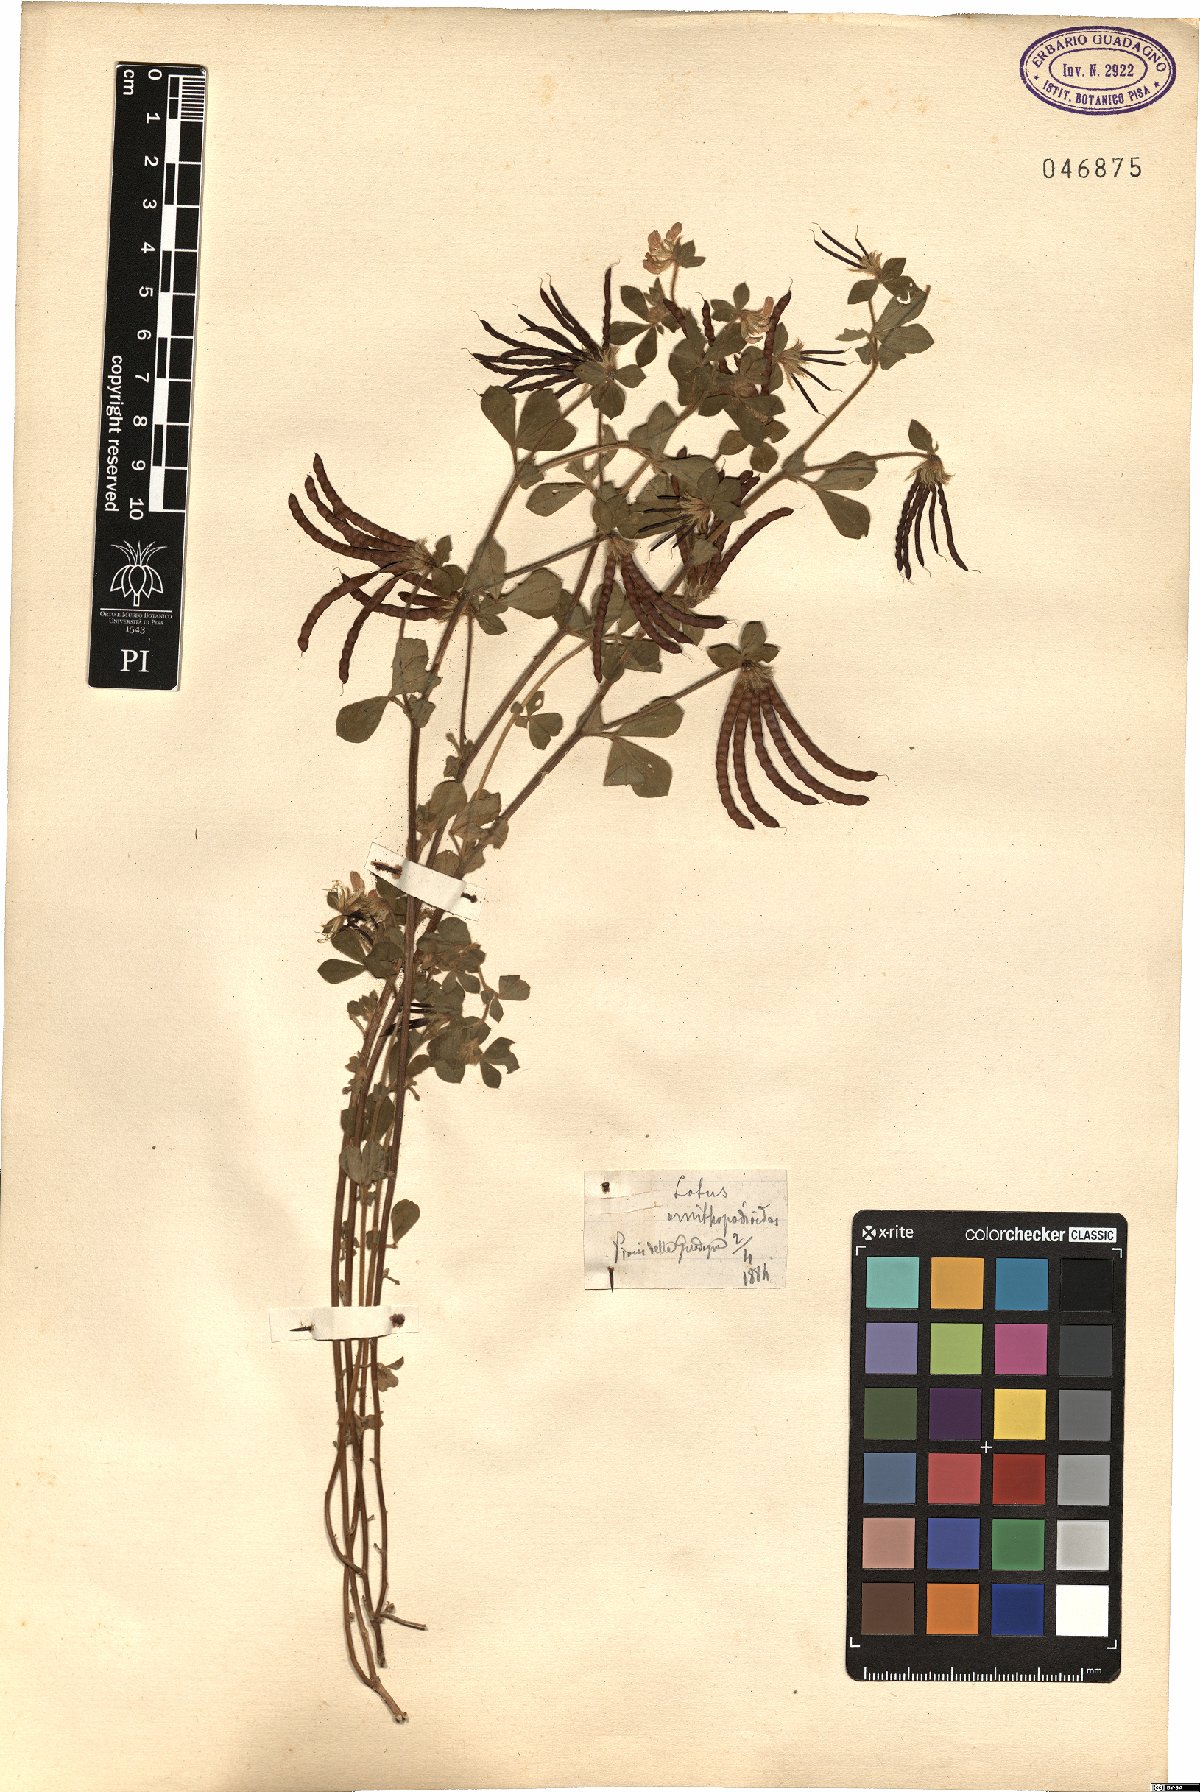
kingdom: Plantae
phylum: Tracheophyta
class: Magnoliopsida
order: Fabales
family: Fabaceae
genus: Lotus
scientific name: Lotus ornithopodioides
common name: Southern bird's-foot trefoil
